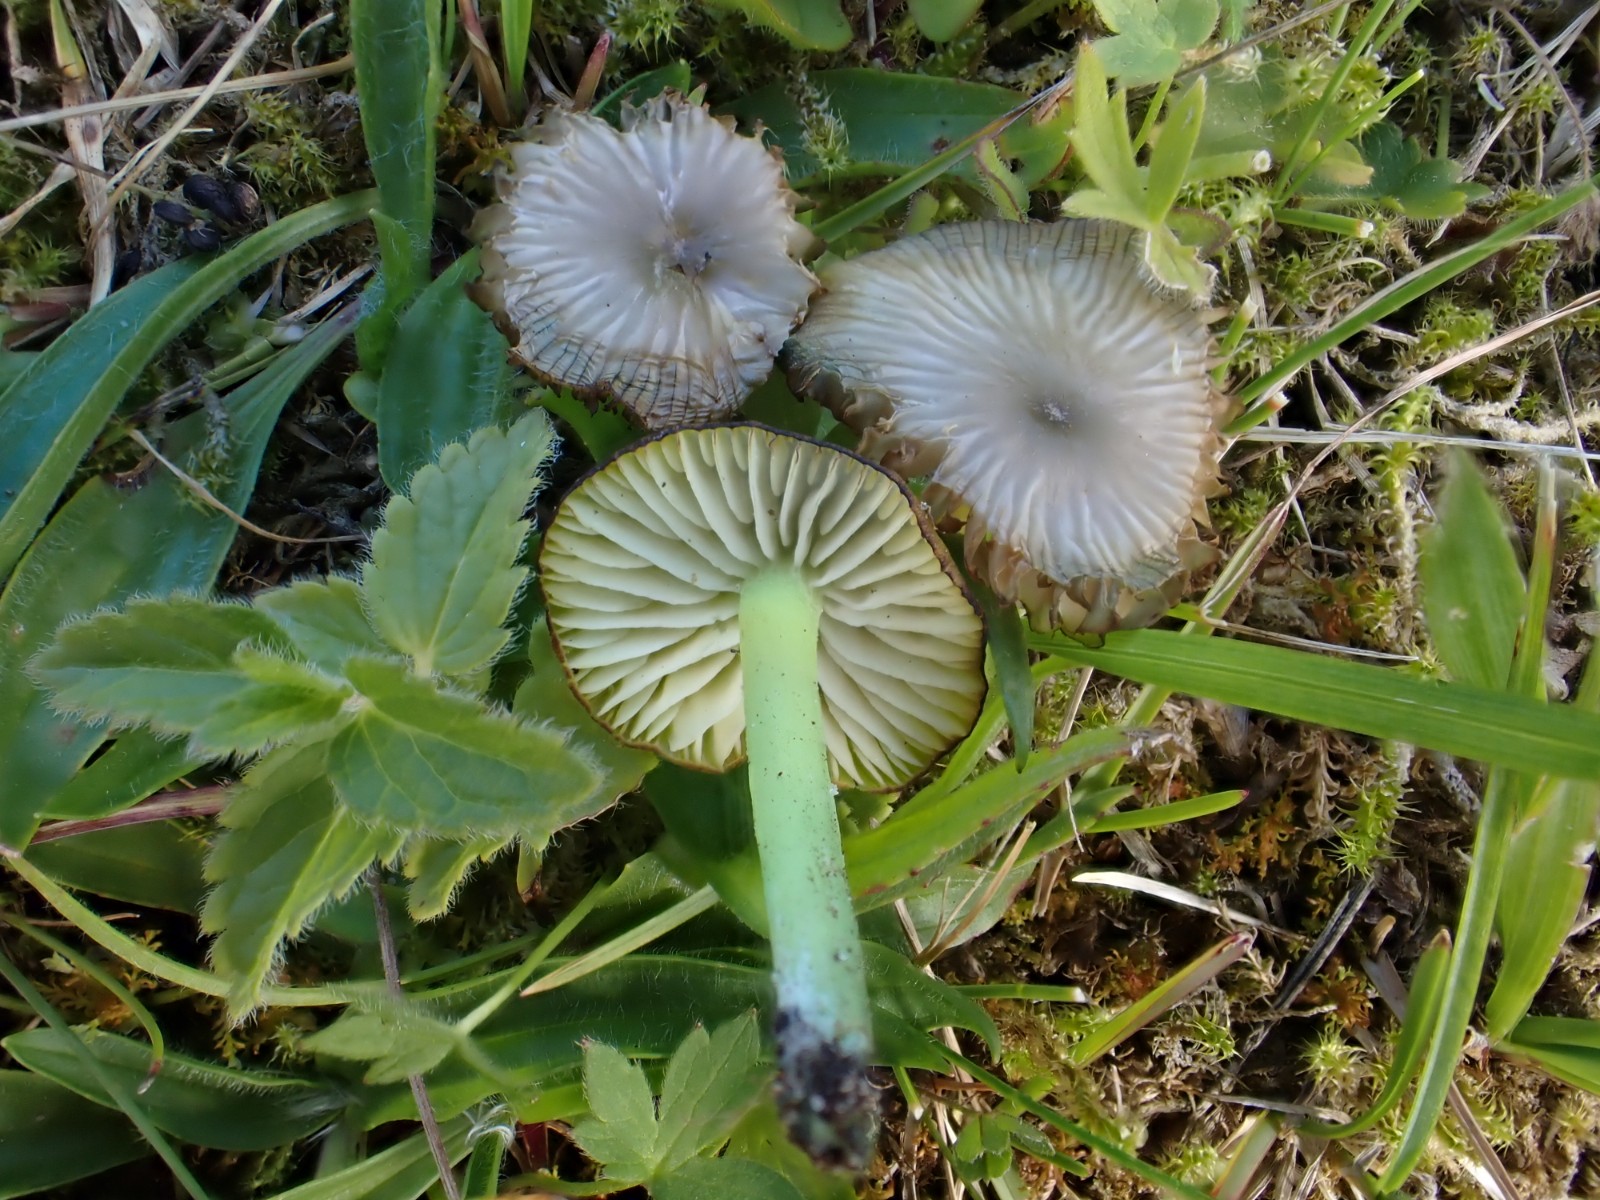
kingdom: Fungi
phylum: Basidiomycota
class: Agaricomycetes
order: Agaricales
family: Entolomataceae
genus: Entoloma
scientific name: Entoloma incanum
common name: grøngul rødblad
